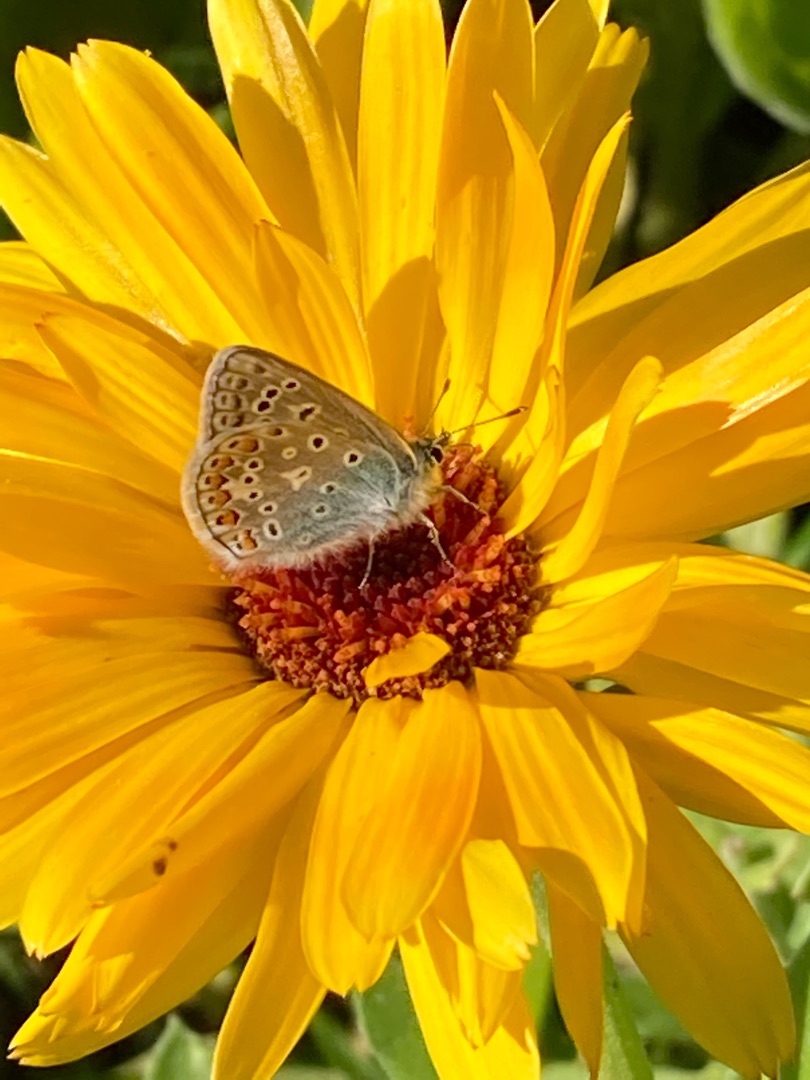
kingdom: Animalia
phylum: Arthropoda
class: Insecta
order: Lepidoptera
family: Lycaenidae
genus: Polyommatus
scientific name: Polyommatus icarus
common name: Almindelig blåfugl
